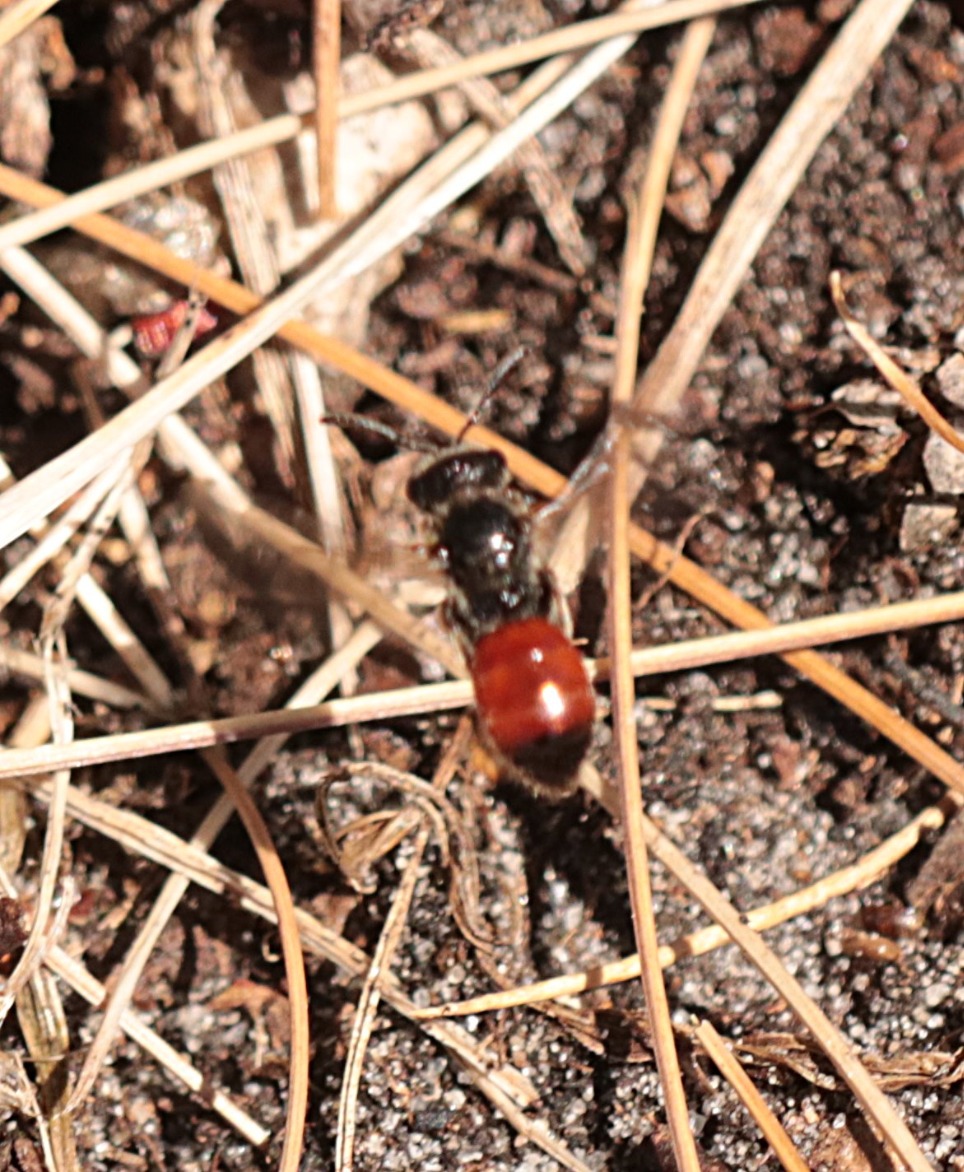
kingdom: Animalia
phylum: Arthropoda
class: Insecta
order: Hymenoptera
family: Halictidae
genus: Sphecodes
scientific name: Sphecodes
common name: Blodbier
